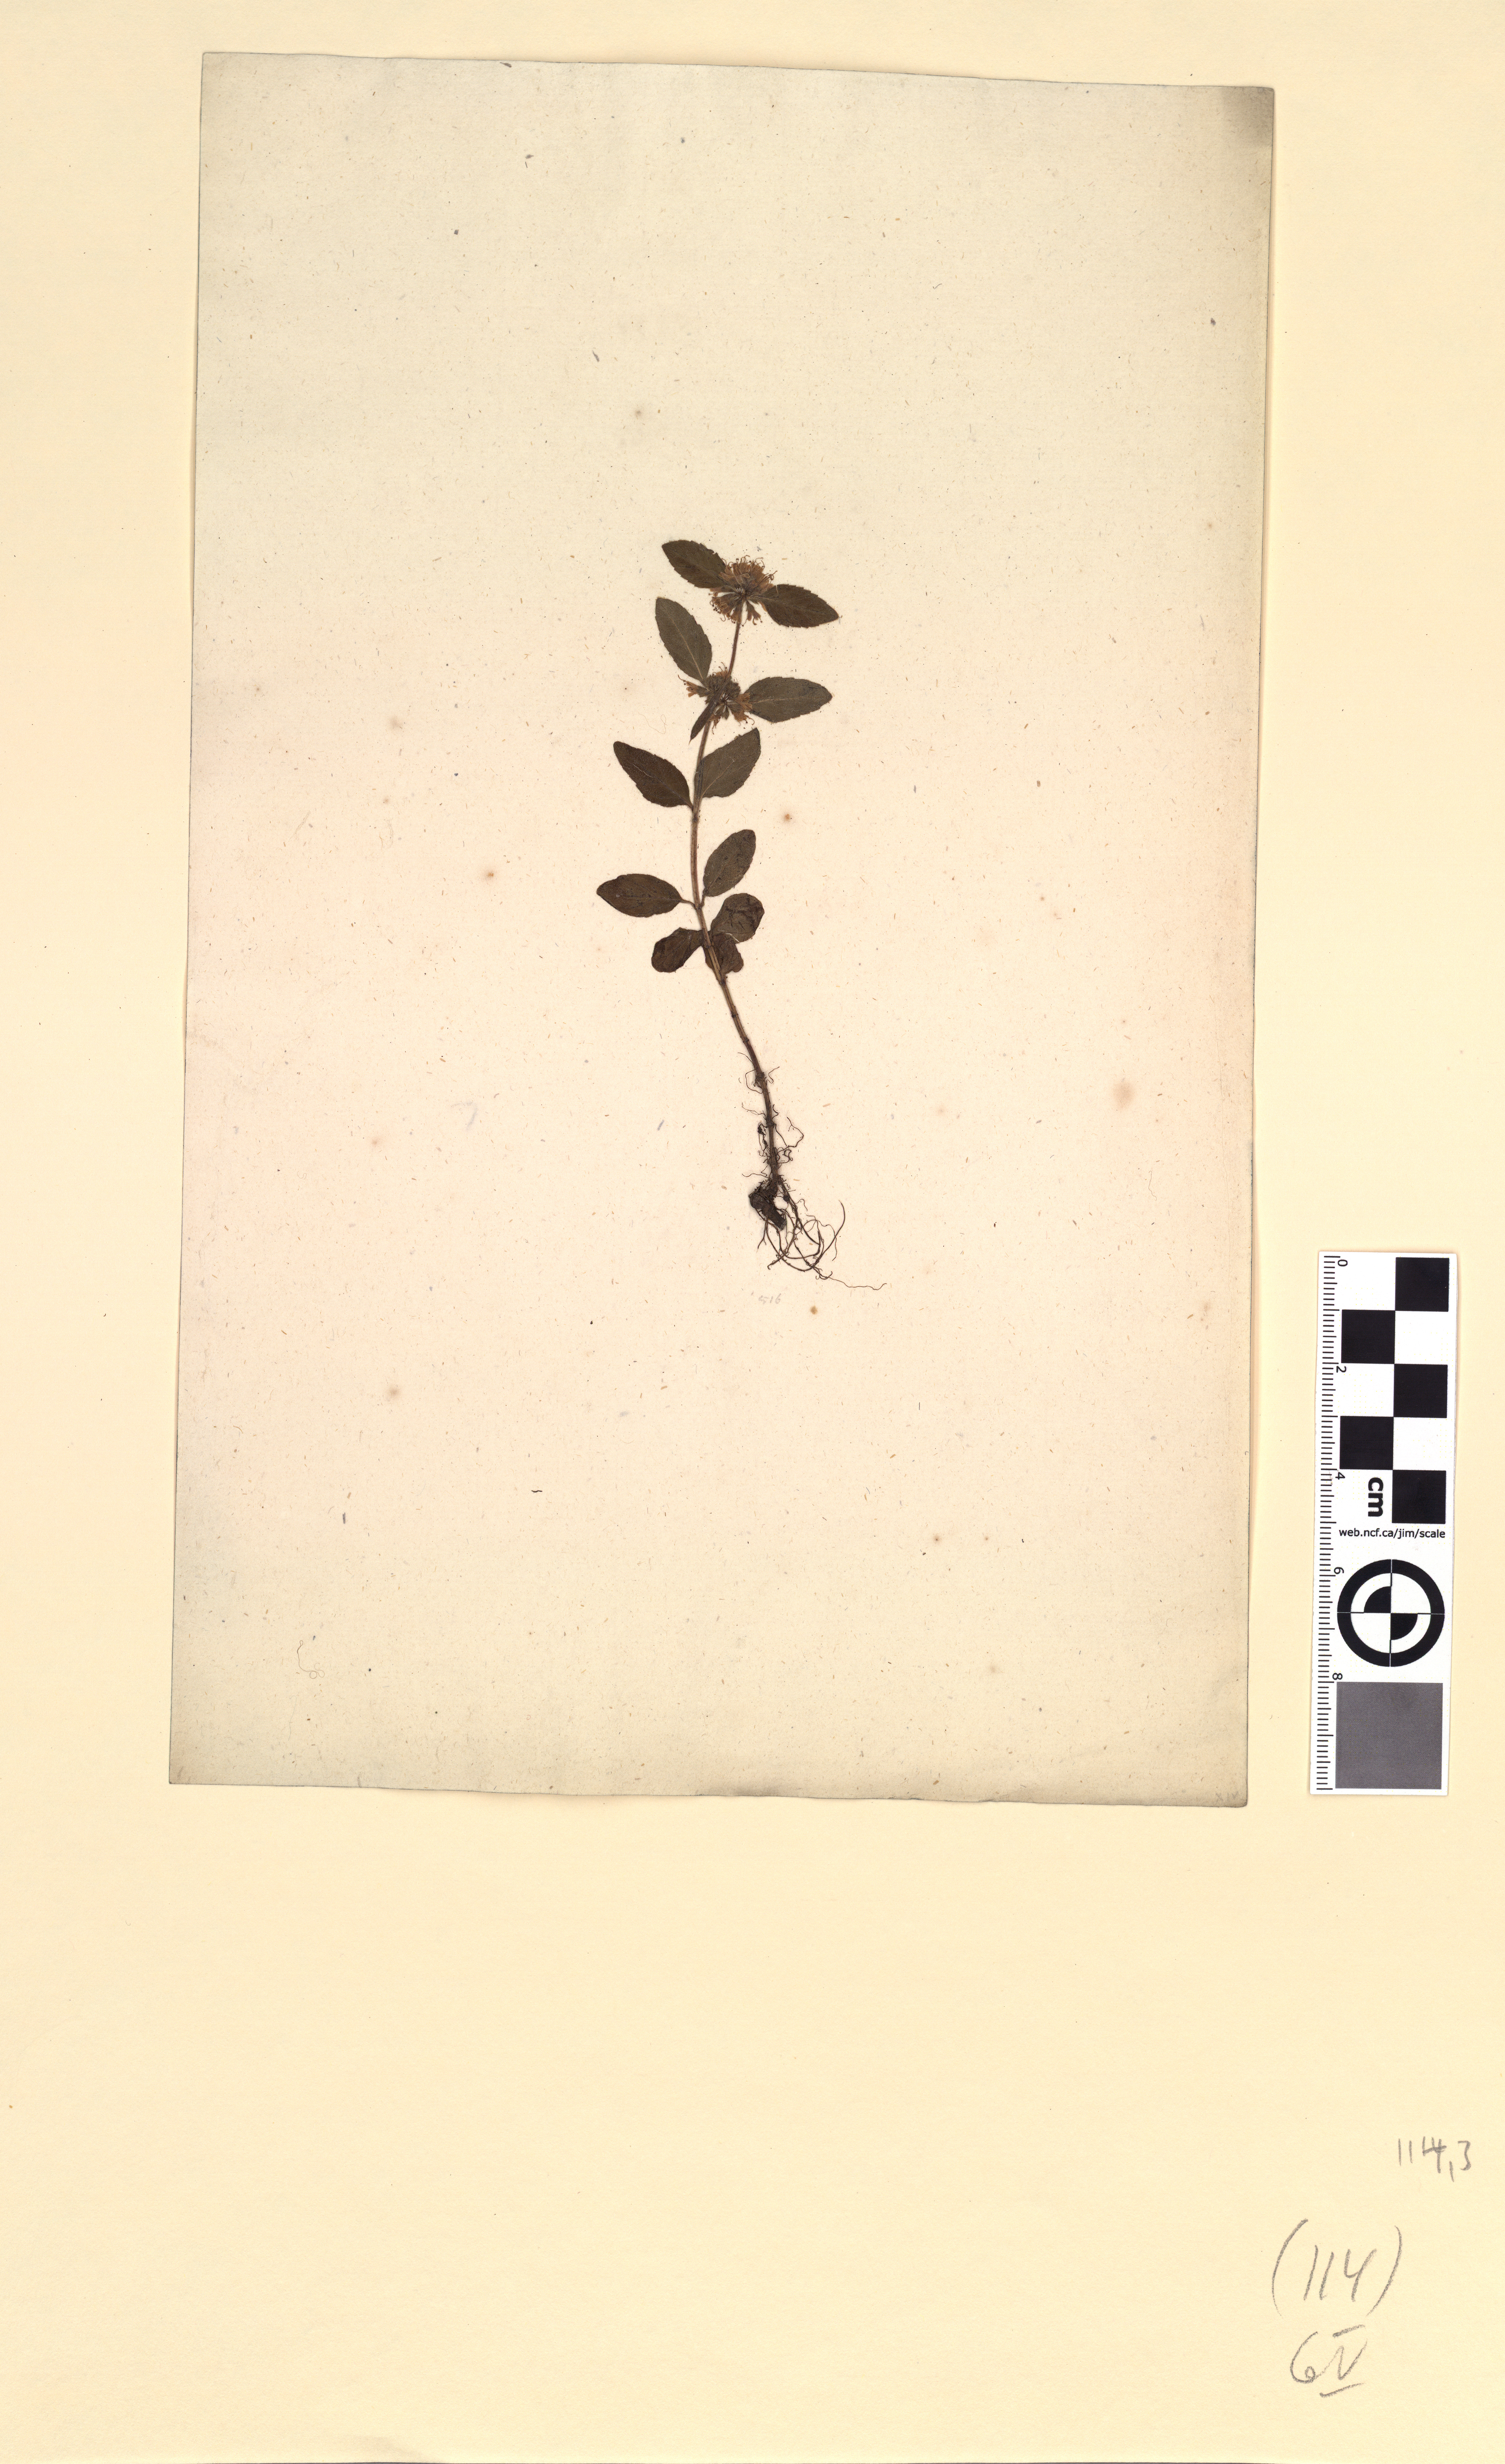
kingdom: Plantae
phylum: Tracheophyta
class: Magnoliopsida
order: Lamiales
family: Lamiaceae
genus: Mentha
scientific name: Mentha arvensis
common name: Corn mint
